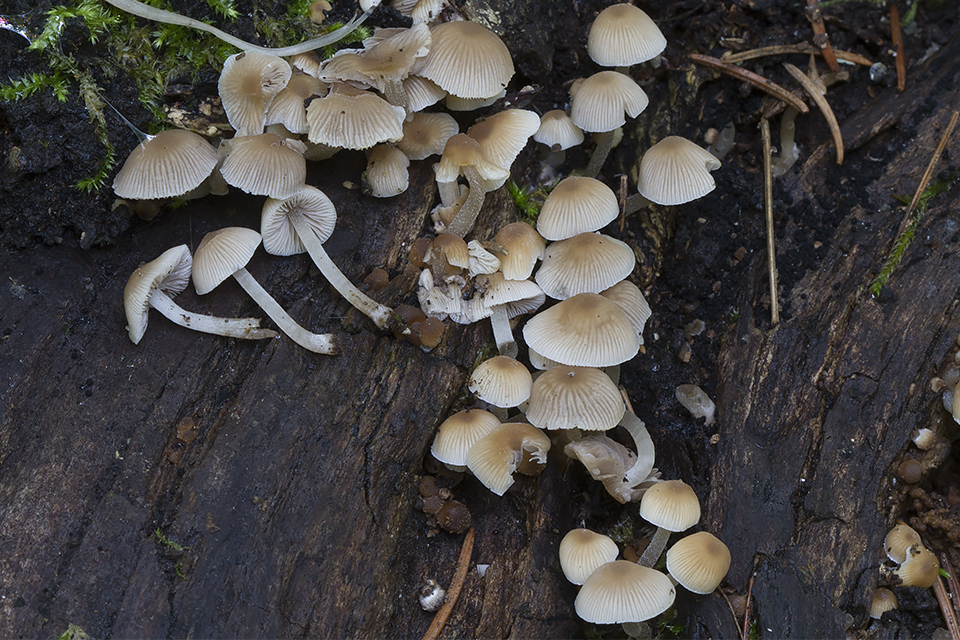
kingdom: Fungi
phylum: Basidiomycota
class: Agaricomycetes
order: Agaricales
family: Psathyrellaceae
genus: Psathyrella
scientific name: Psathyrella pygmaea
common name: dværg-mørkhat
